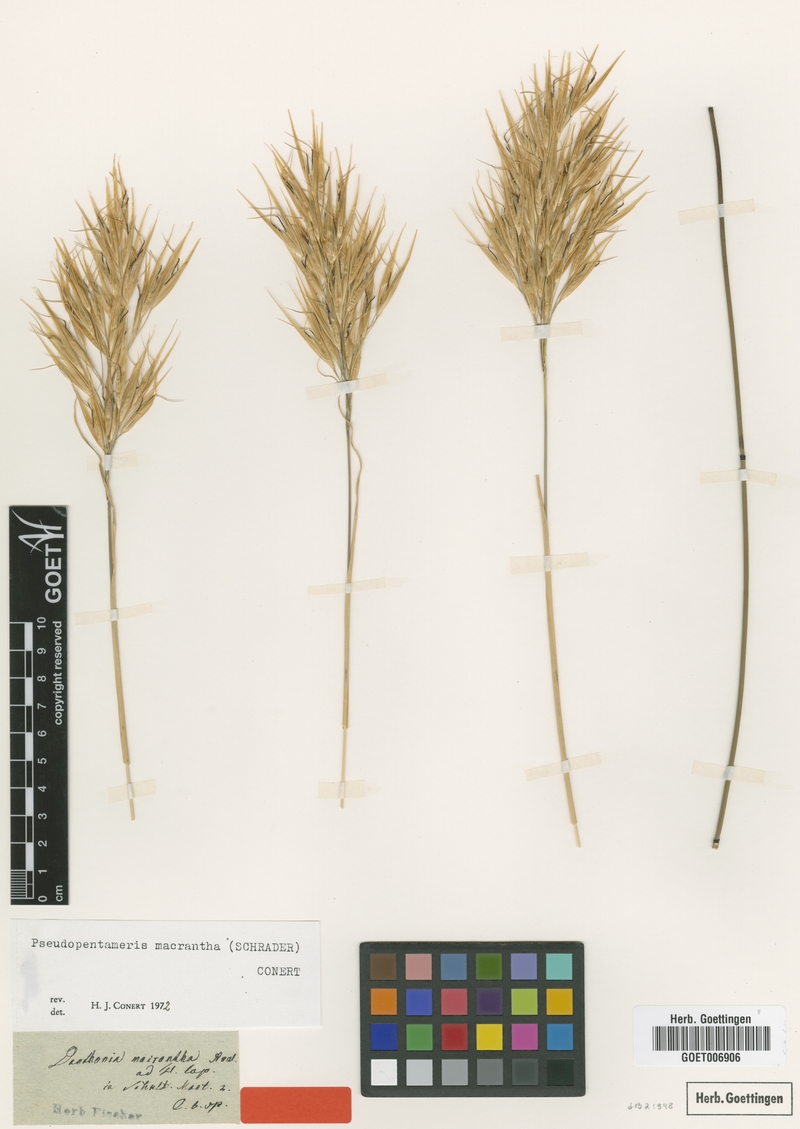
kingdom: Plantae
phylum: Tracheophyta
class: Liliopsida
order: Poales
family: Poaceae
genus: Pseudopentameris
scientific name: Pseudopentameris macrantha
